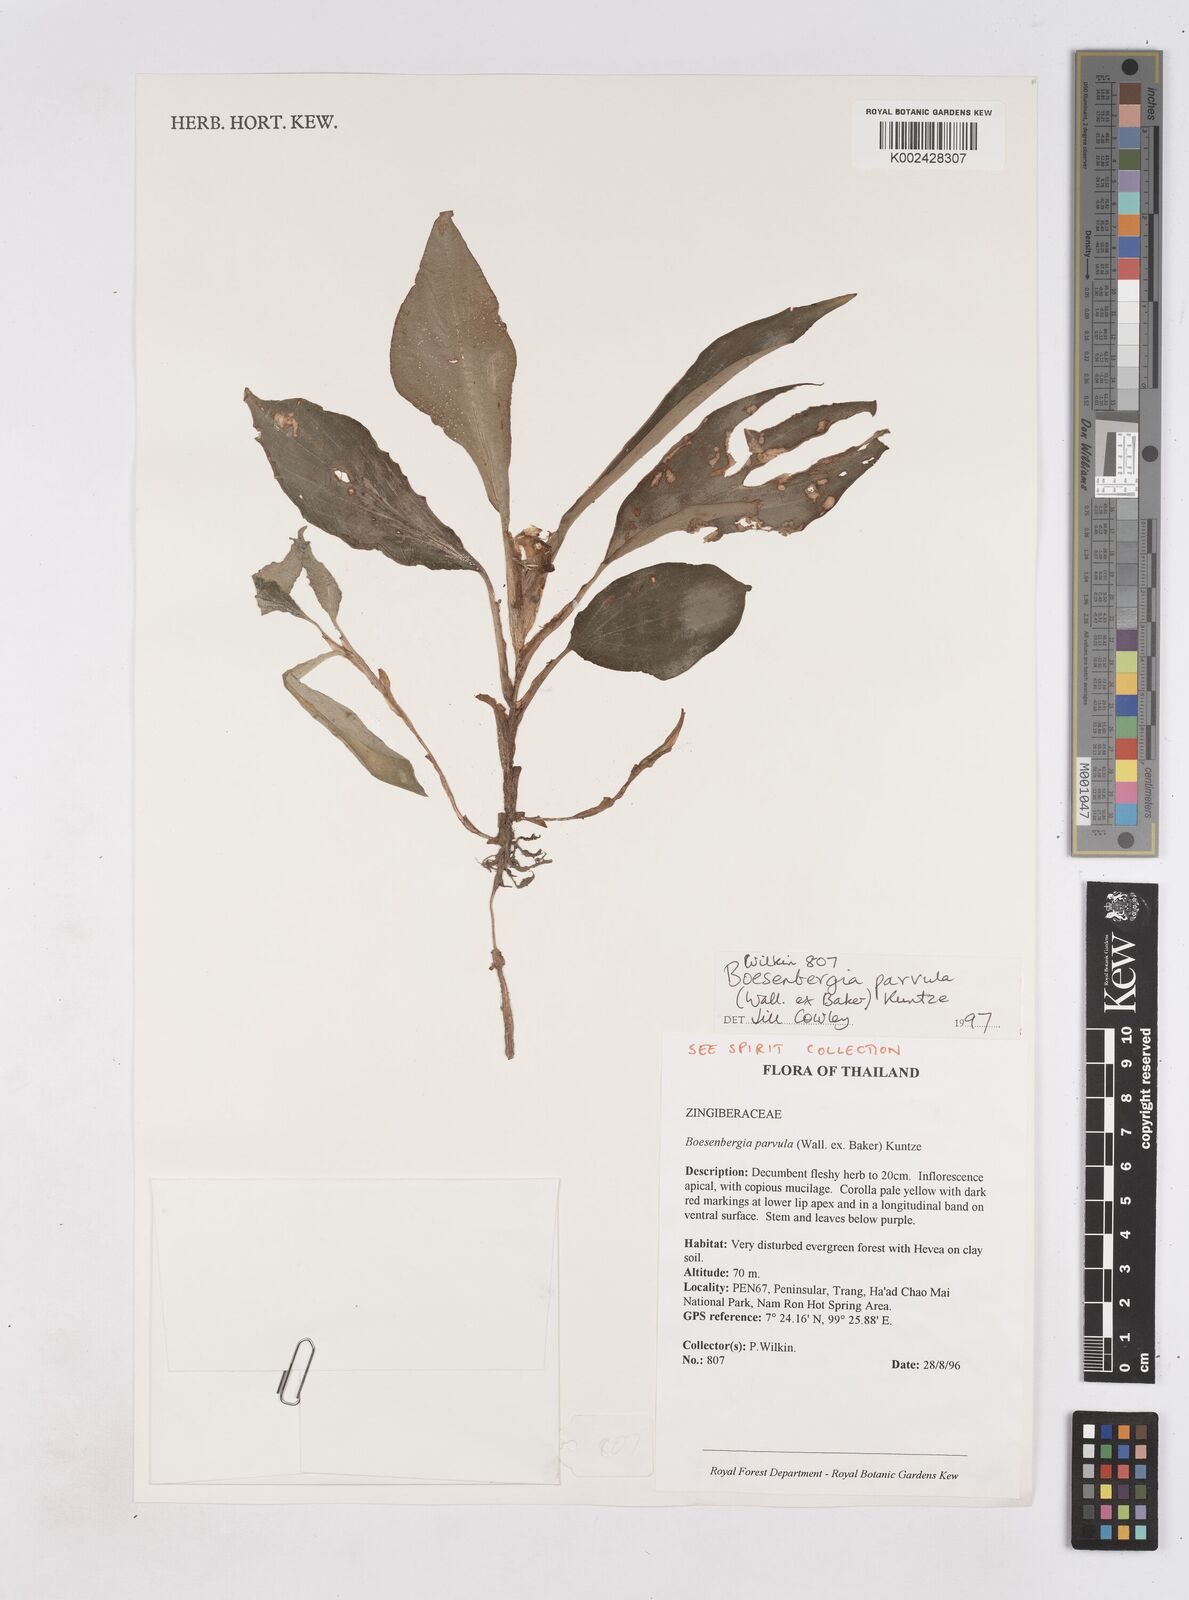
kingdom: Plantae
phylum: Tracheophyta
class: Liliopsida
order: Zingiberales
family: Zingiberaceae
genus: Boesenbergia
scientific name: Boesenbergia parvula
